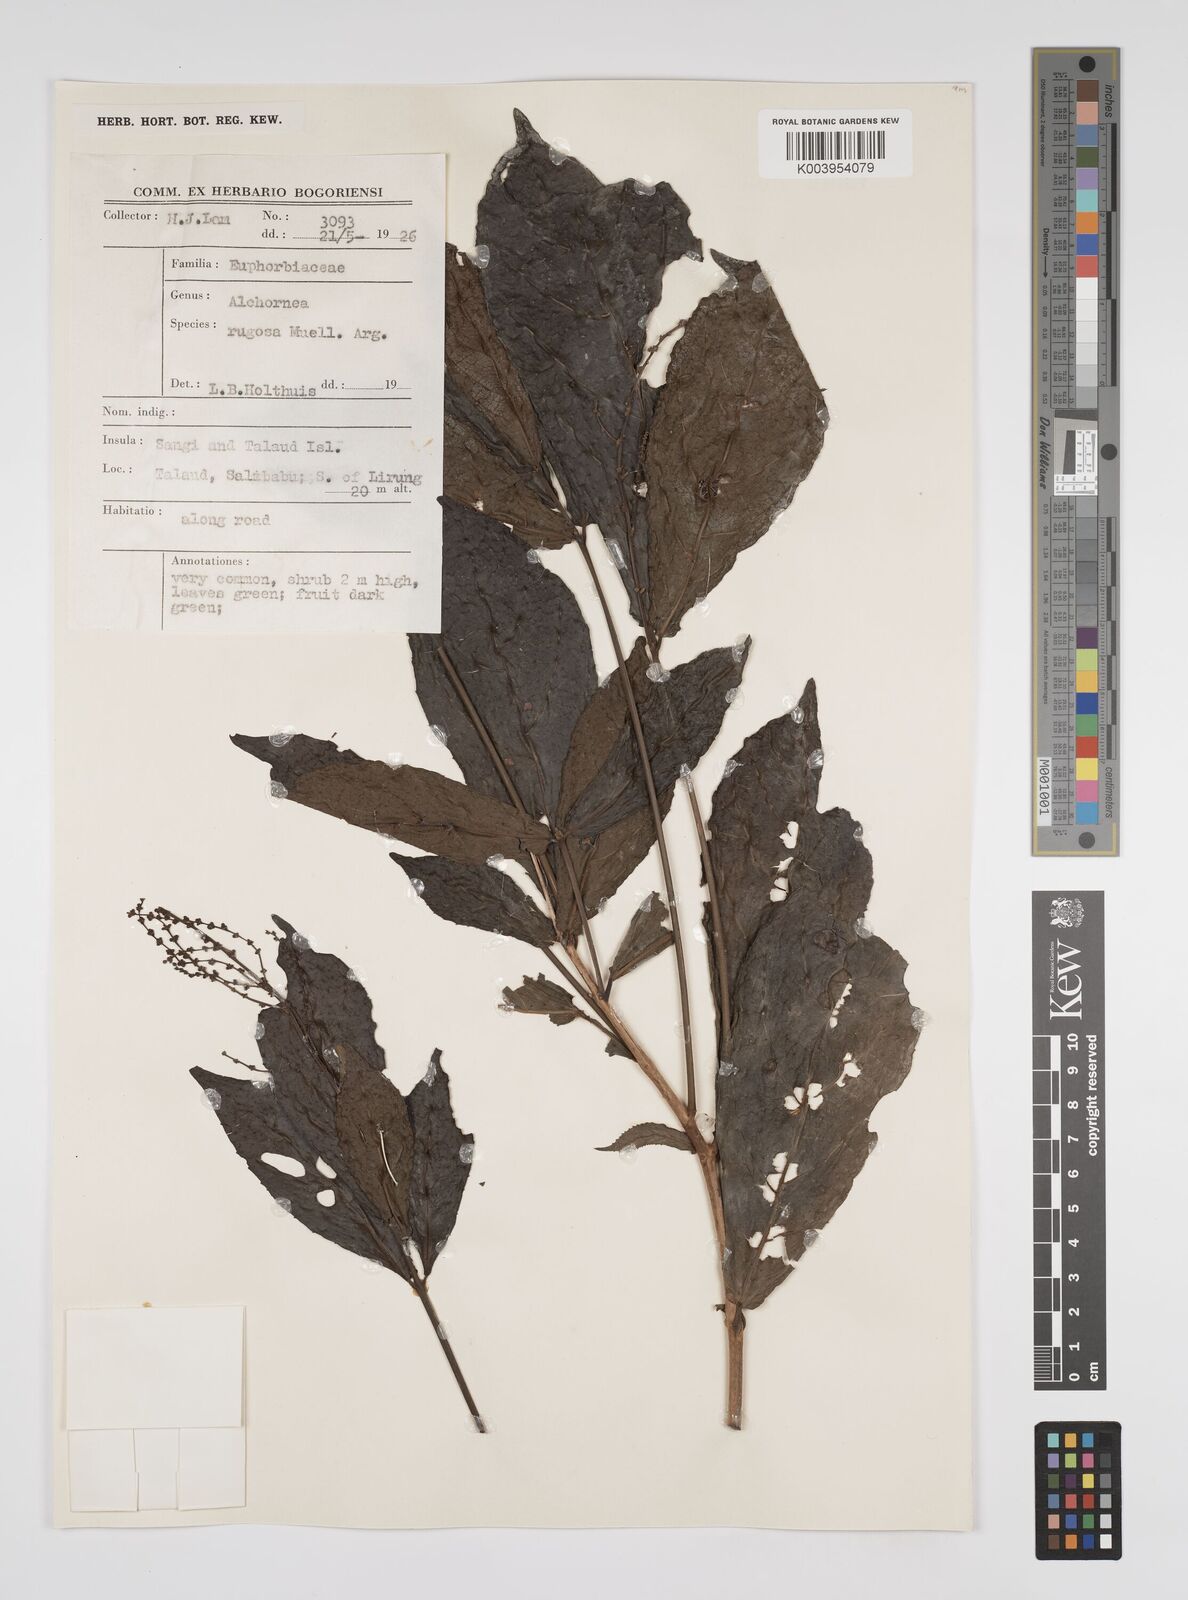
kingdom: Plantae
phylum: Tracheophyta
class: Magnoliopsida
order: Malpighiales
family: Euphorbiaceae
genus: Alchornea
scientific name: Alchornea rugosa
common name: Alchorntree
